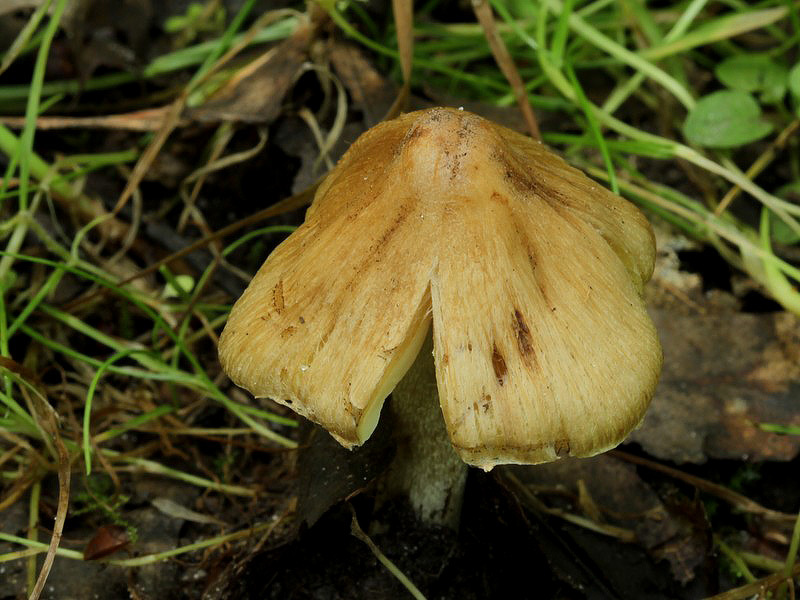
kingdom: Fungi
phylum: Basidiomycota
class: Agaricomycetes
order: Agaricales
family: Inocybaceae
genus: Pseudosperma
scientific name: Pseudosperma rimosum
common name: gulbladet trævlhat
